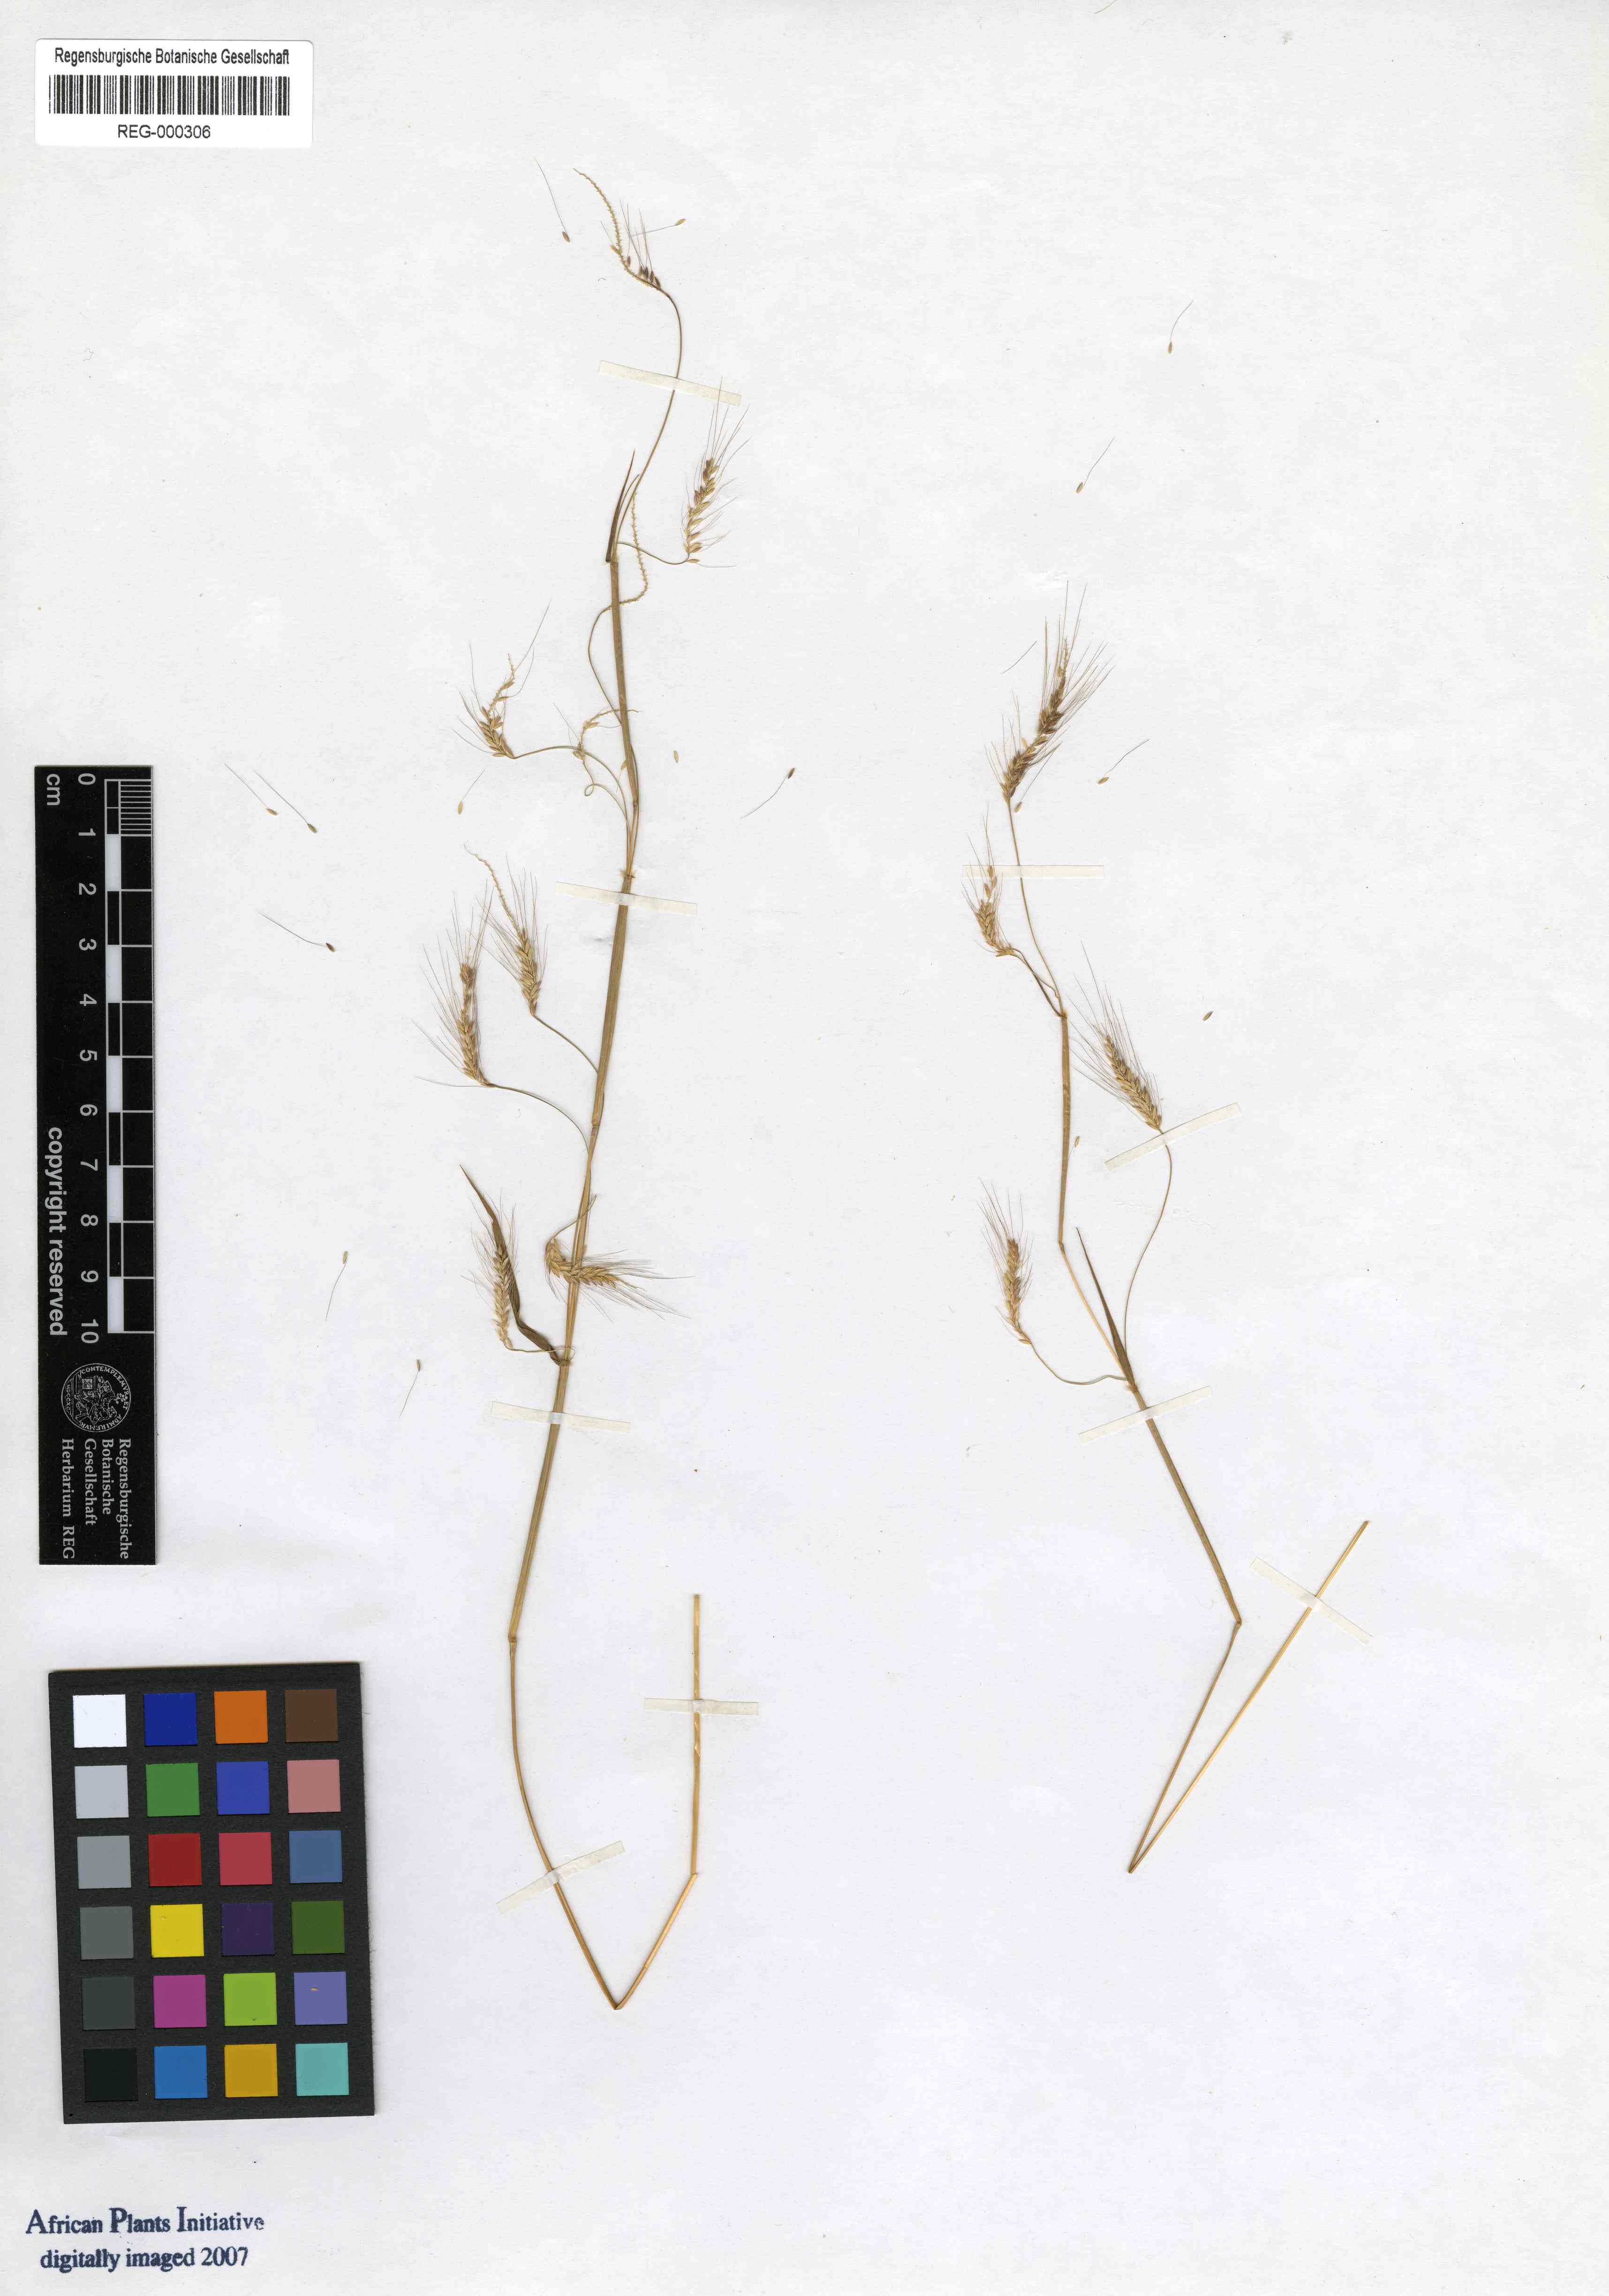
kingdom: Plantae
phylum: Tracheophyta
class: Liliopsida
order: Poales
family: Poaceae
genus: Cenchrus
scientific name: Cenchrus petiolaris
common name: Grass
